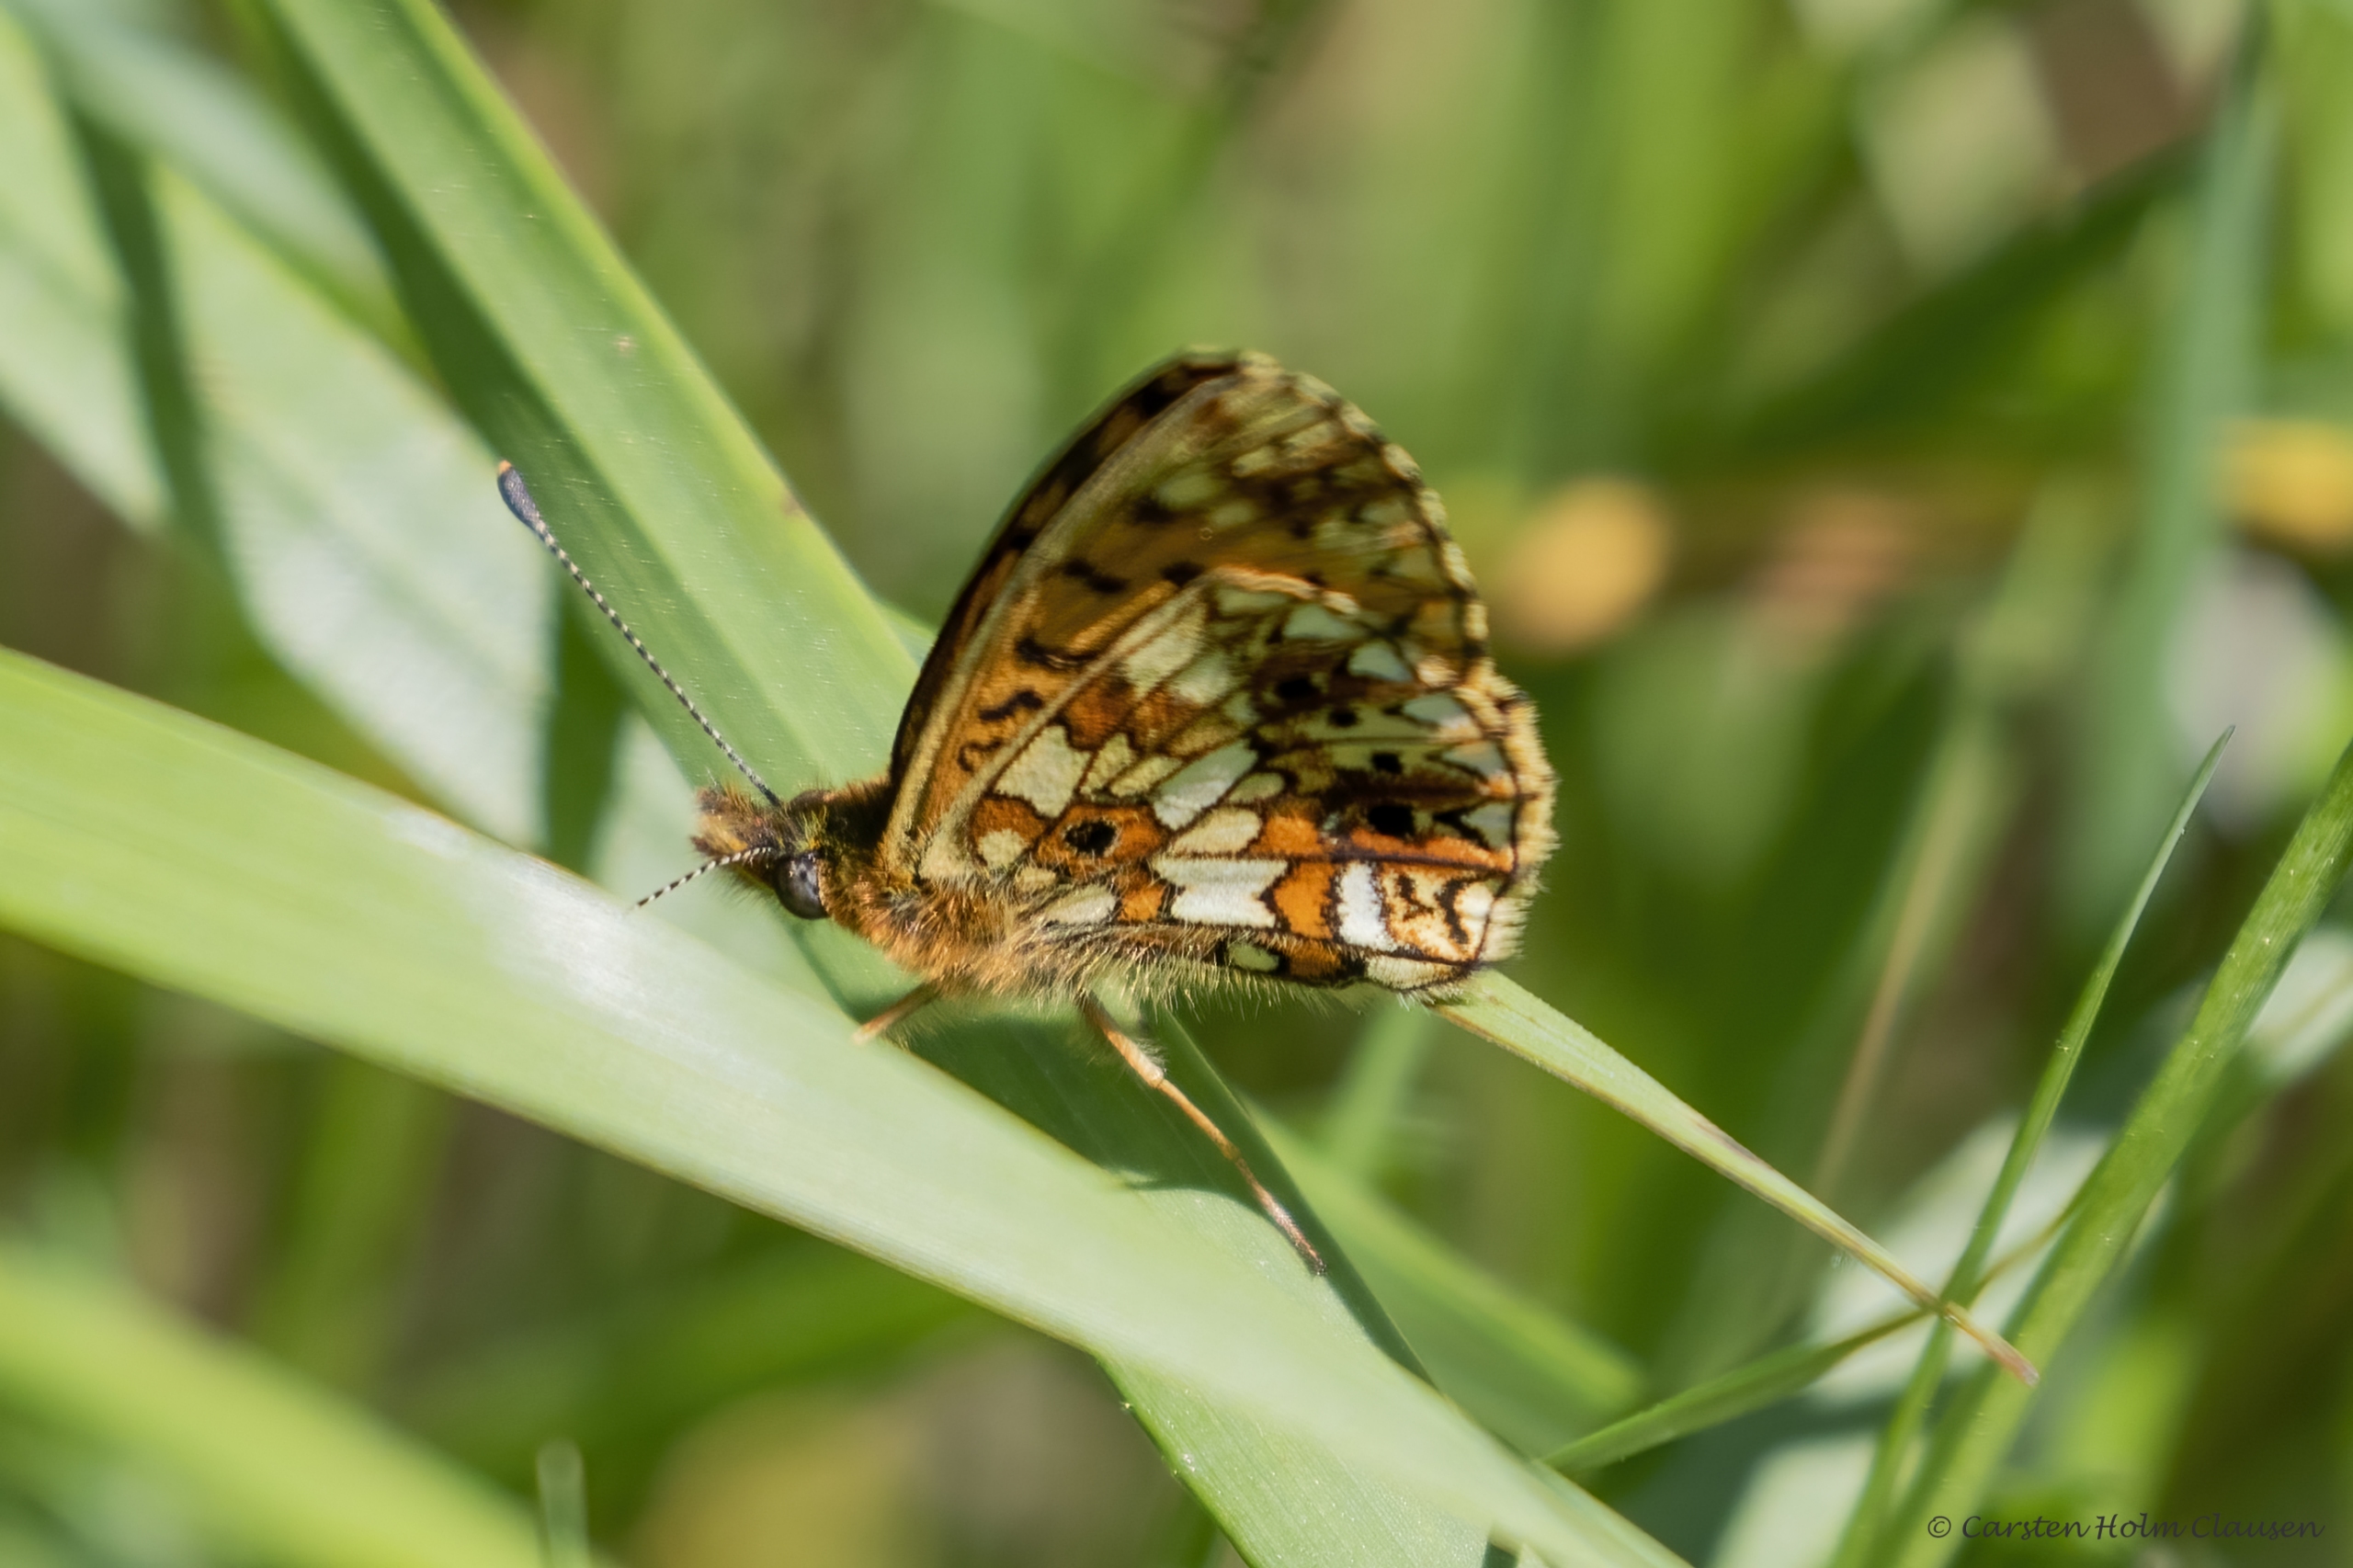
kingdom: Animalia
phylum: Arthropoda
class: Insecta
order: Lepidoptera
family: Nymphalidae
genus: Boloria
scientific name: Boloria selene
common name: Brunlig perlemorsommerfugl
